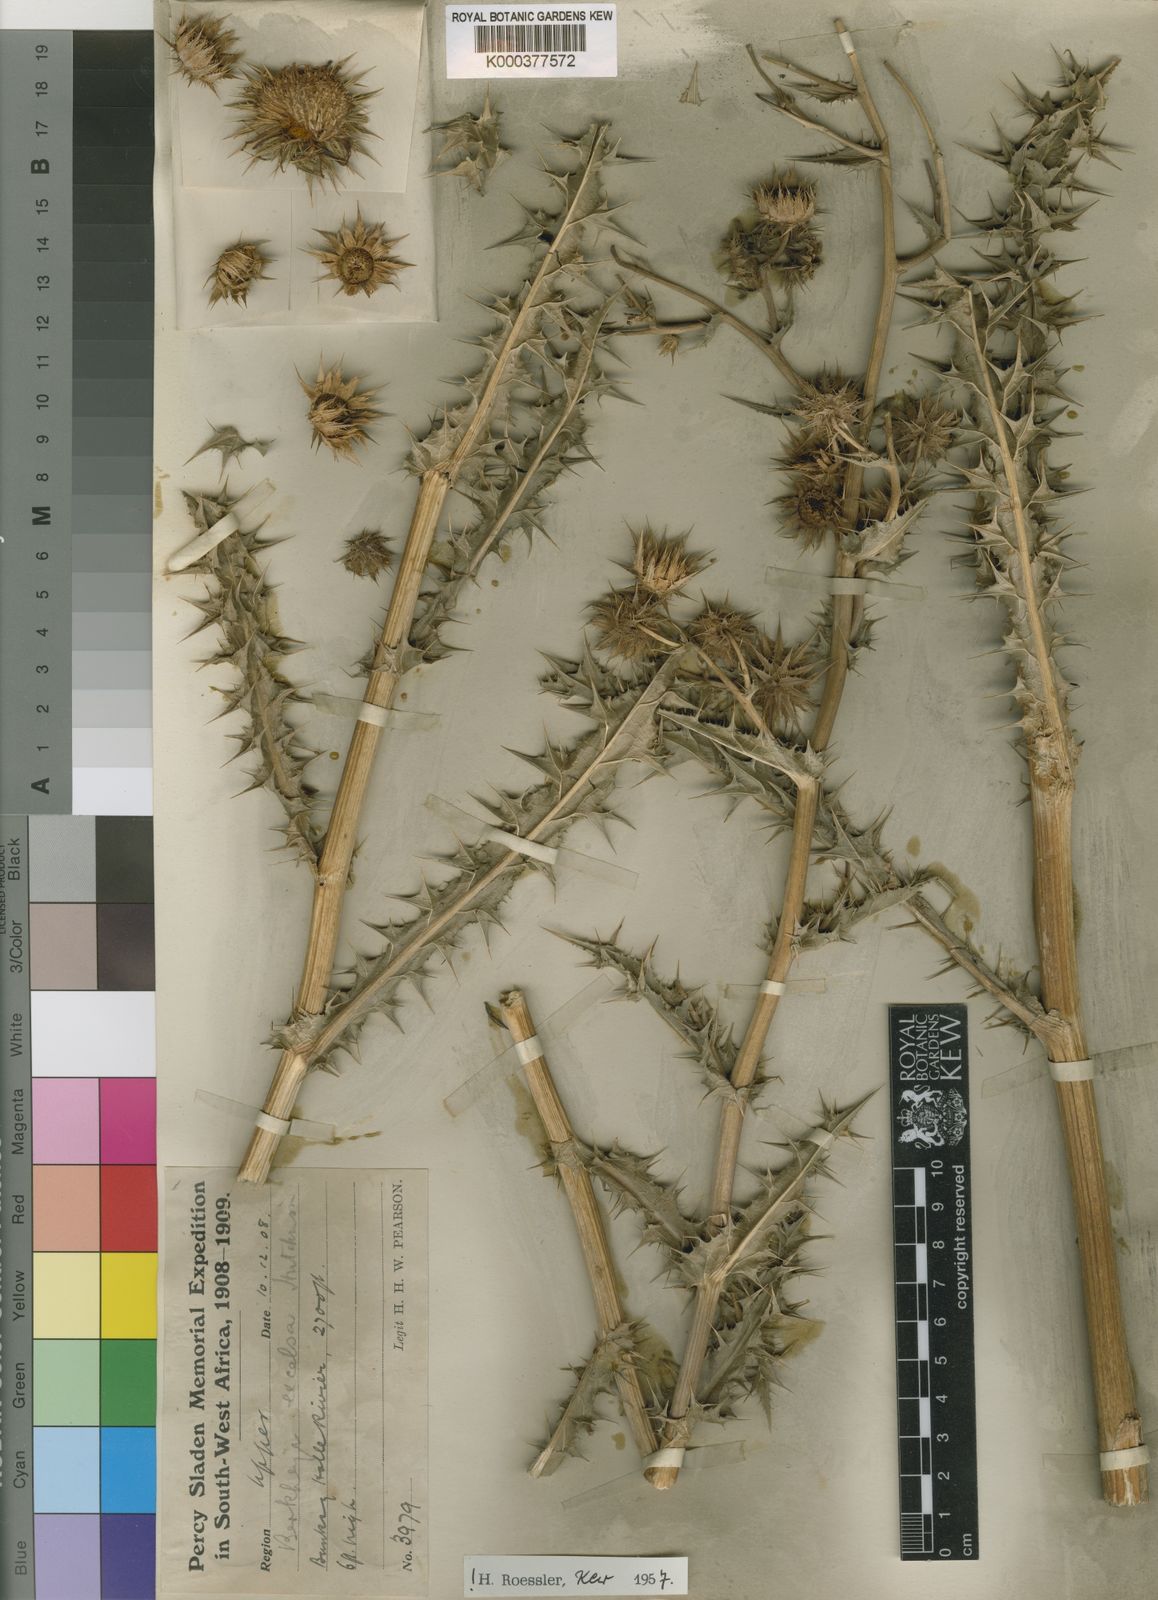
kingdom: Plantae
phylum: Tracheophyta
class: Magnoliopsida
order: Asterales
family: Asteraceae
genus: Berkheya
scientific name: Berkheya carlinifolia
